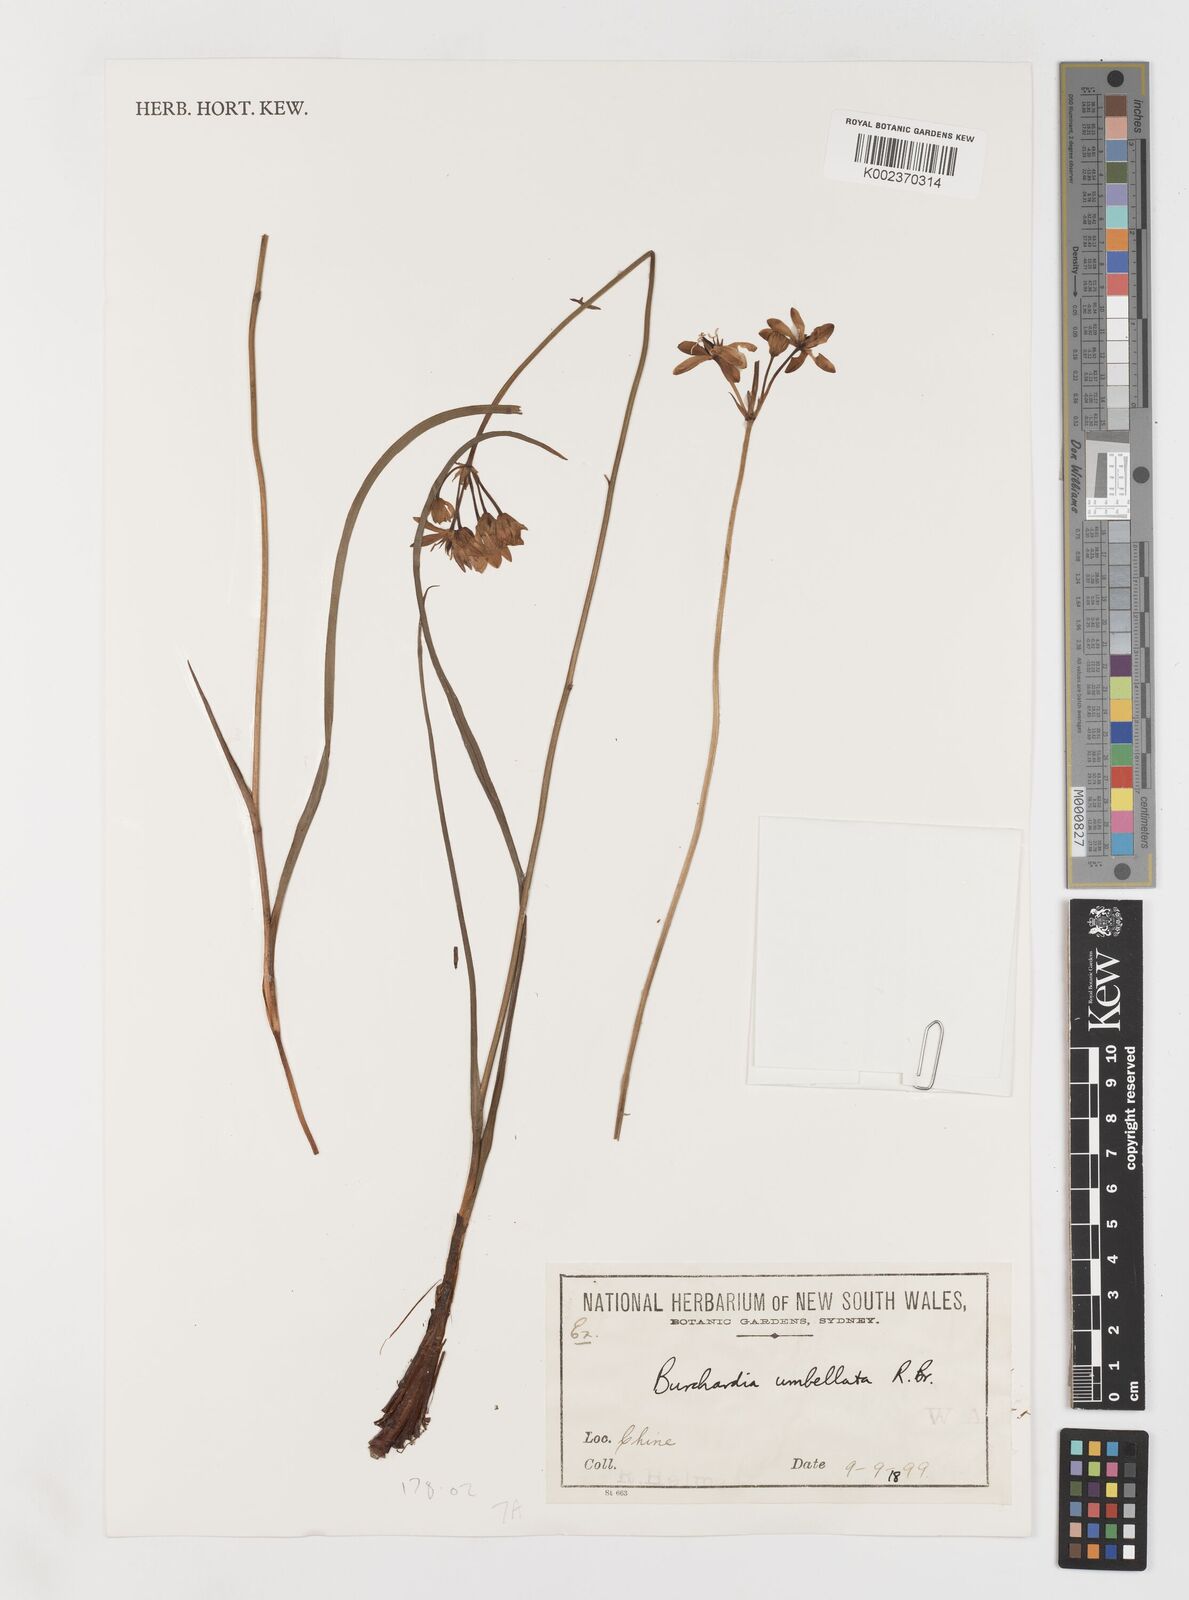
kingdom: Plantae
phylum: Tracheophyta
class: Liliopsida
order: Liliales
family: Colchicaceae
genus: Burchardia
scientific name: Burchardia umbellata
